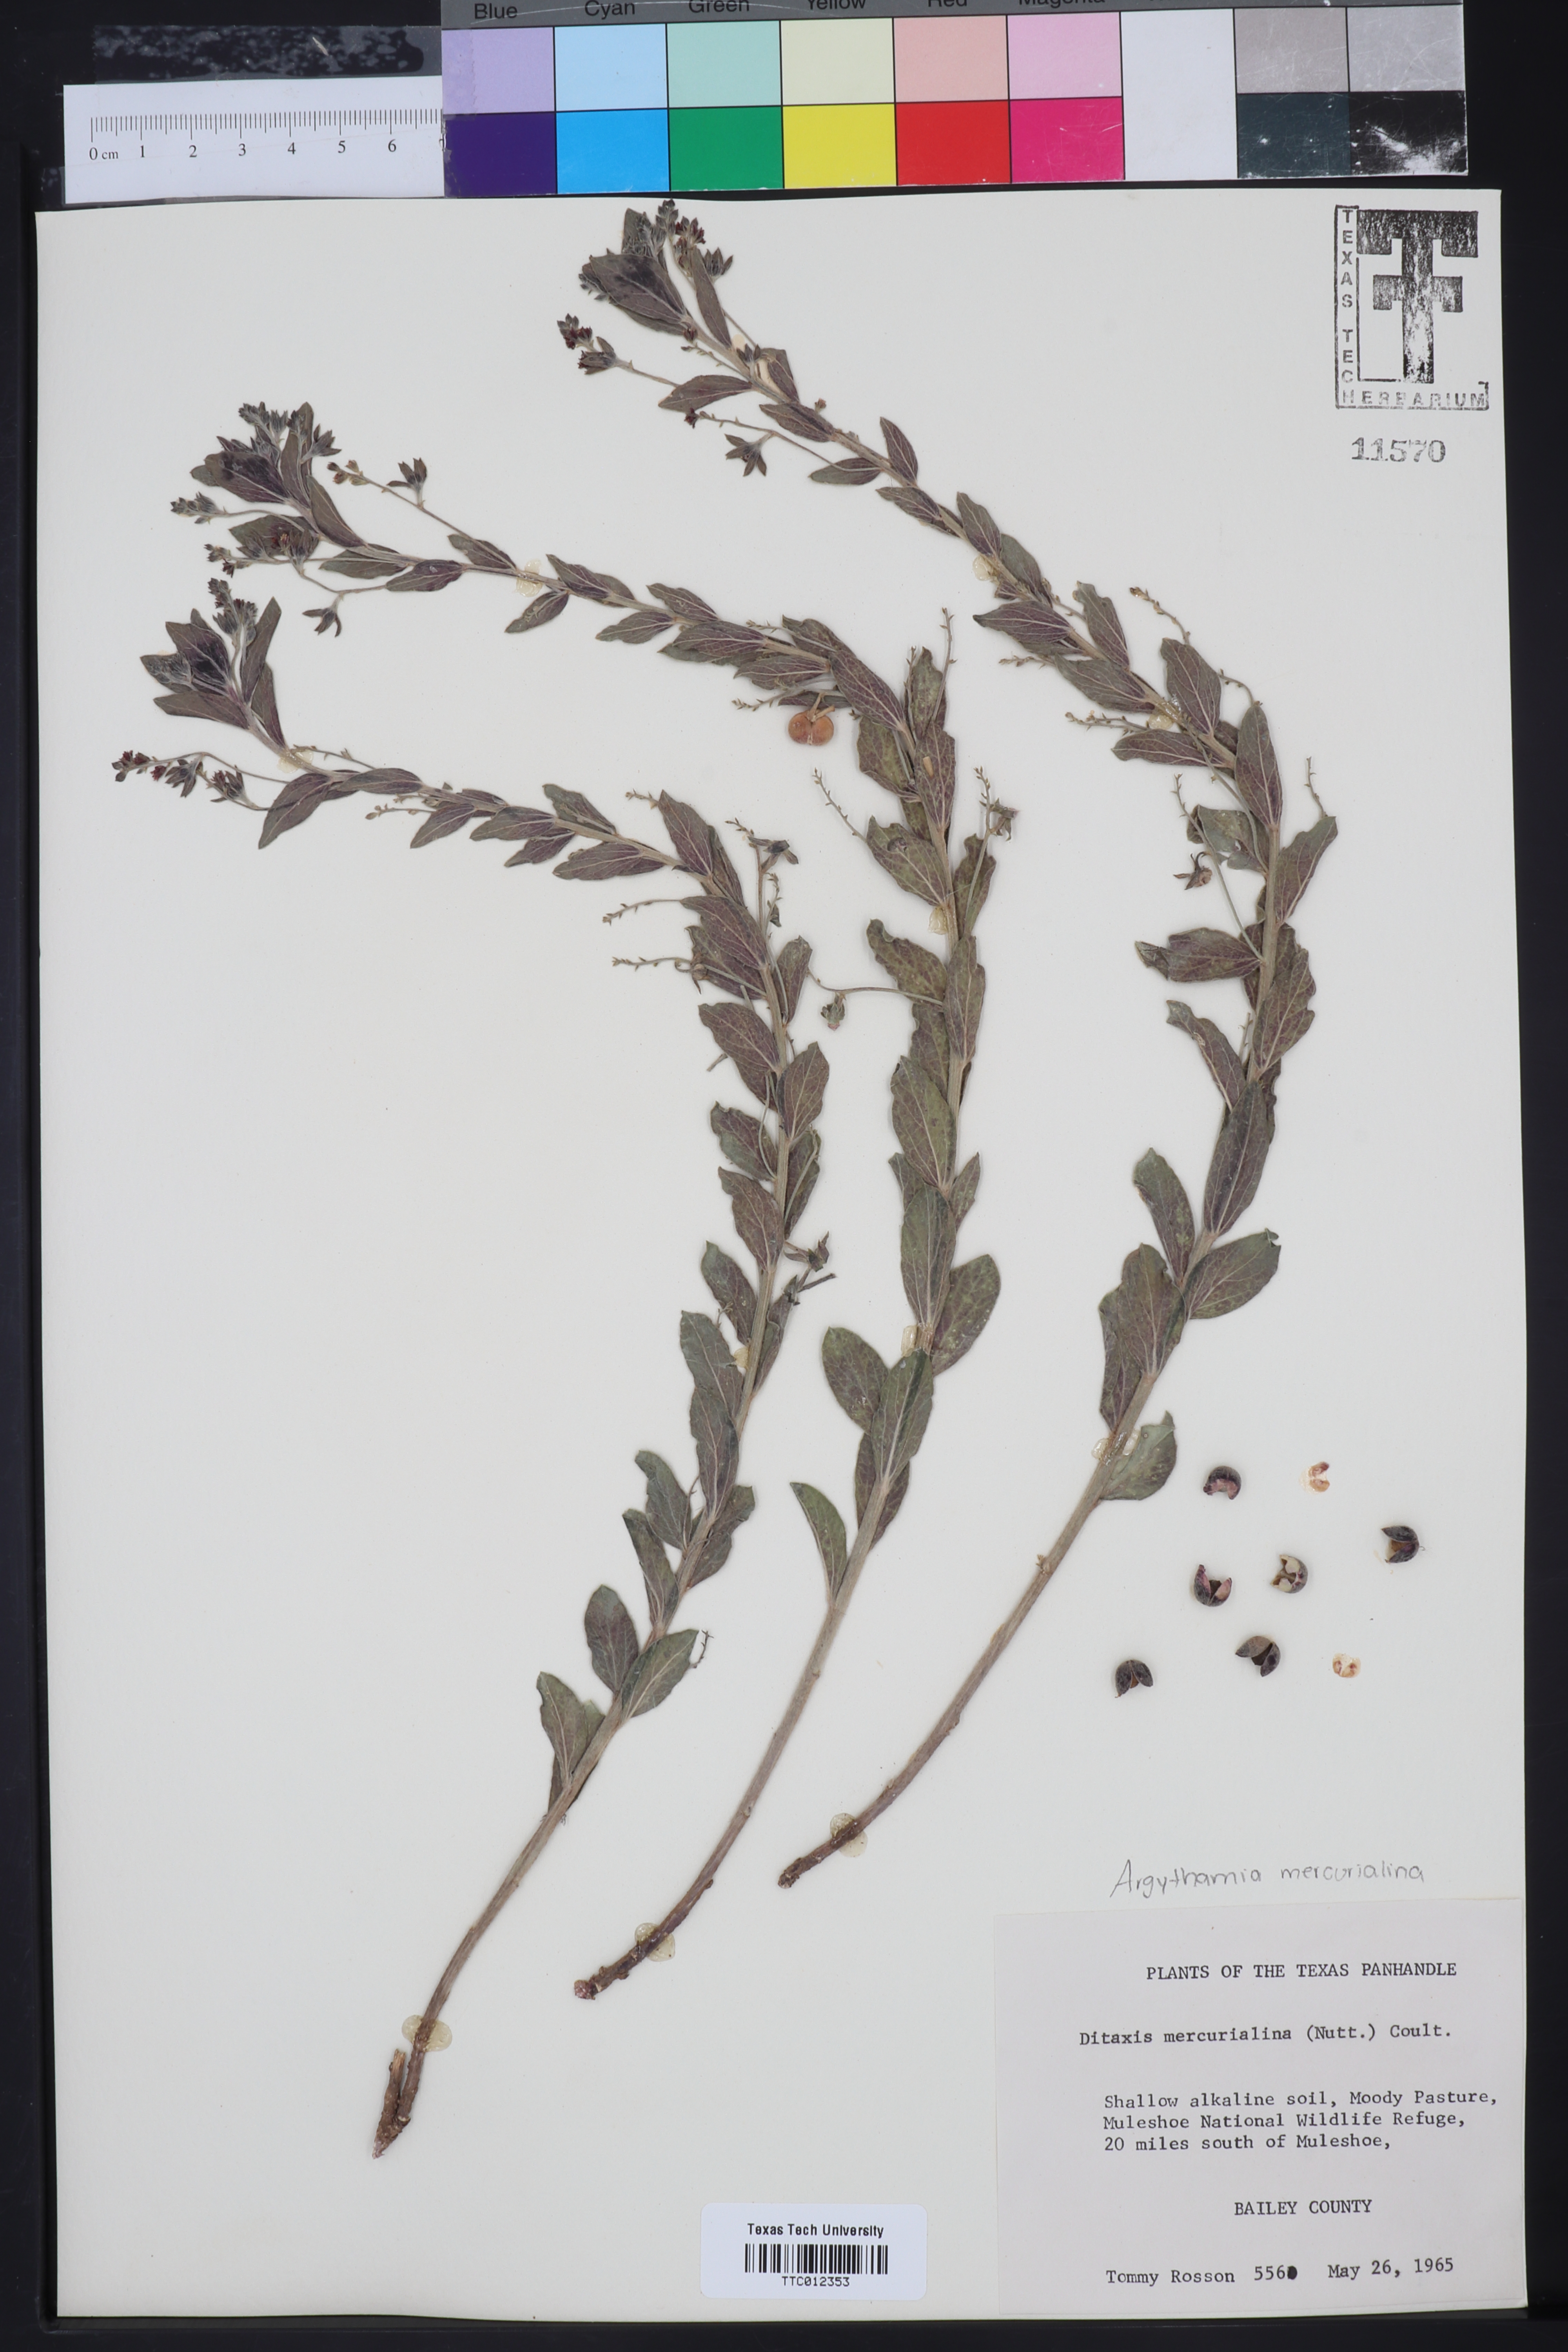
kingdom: Plantae
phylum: Tracheophyta
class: Magnoliopsida
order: Malpighiales
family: Euphorbiaceae
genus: Ditaxis
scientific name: Ditaxis mercurialina
